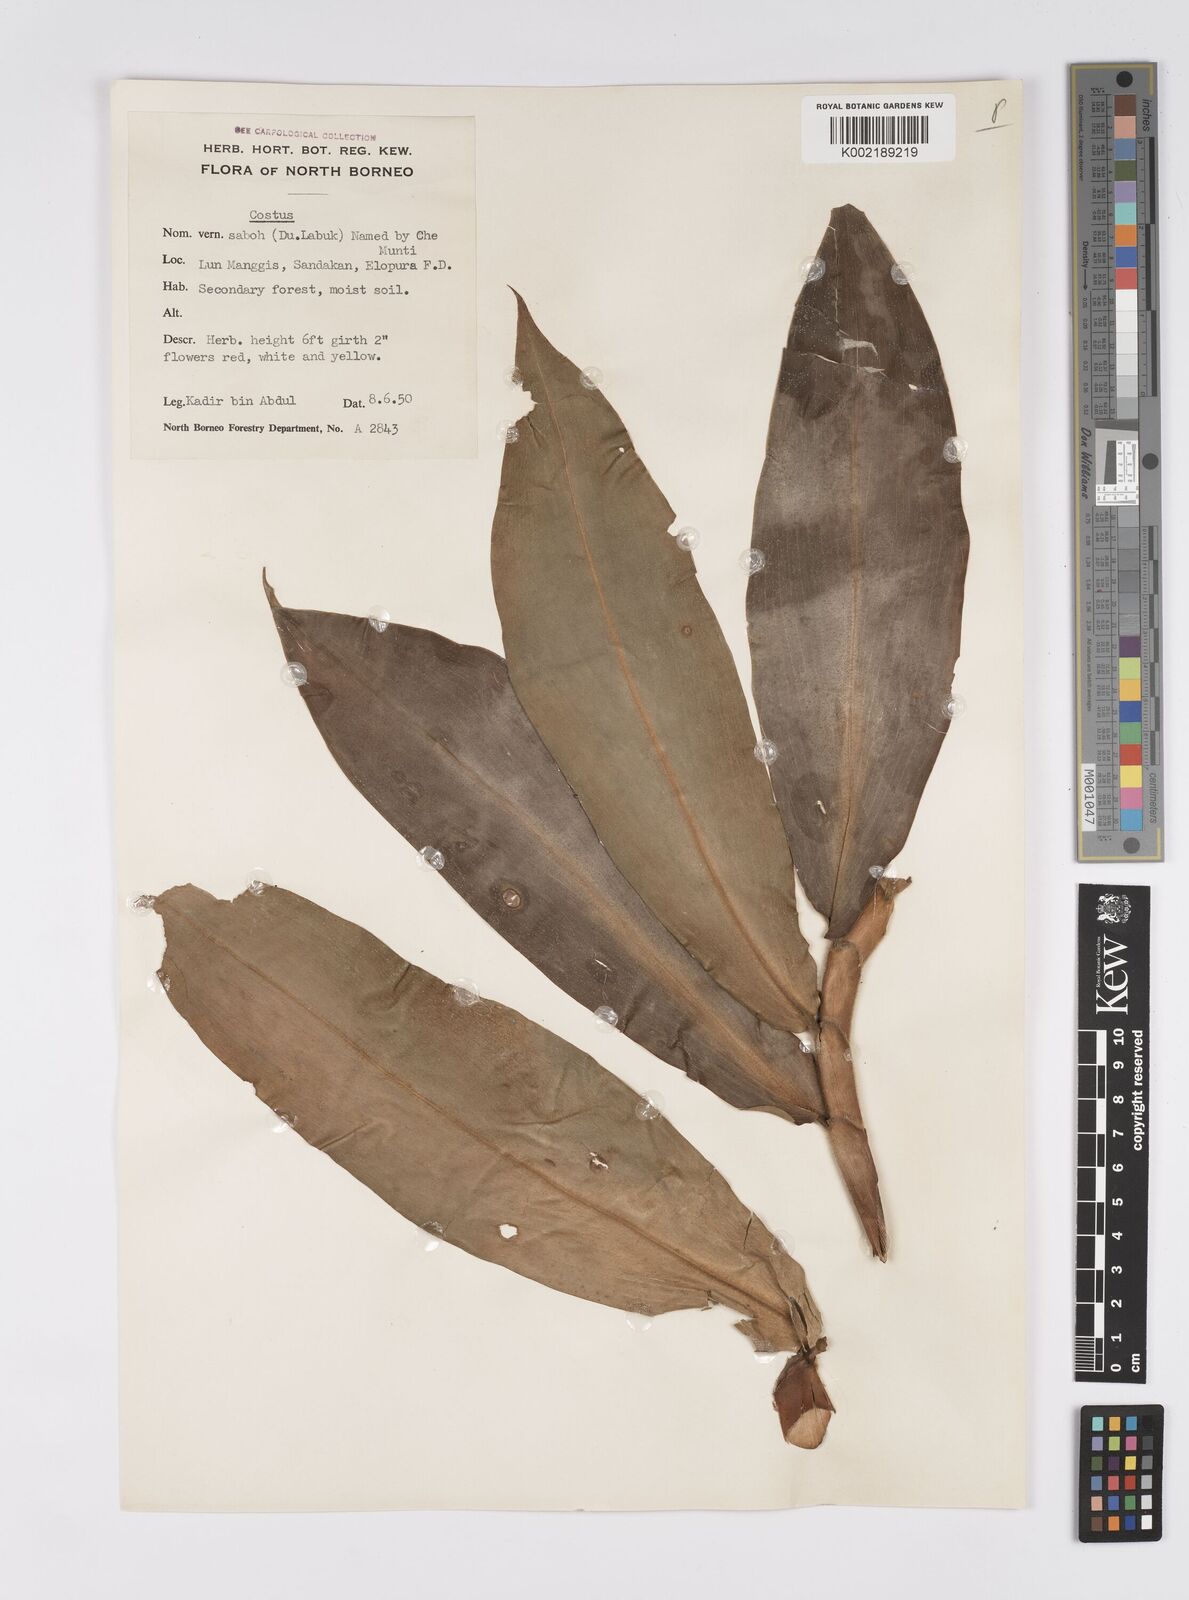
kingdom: Plantae
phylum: Tracheophyta
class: Liliopsida
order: Zingiberales
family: Costaceae
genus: Costus
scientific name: Costus
